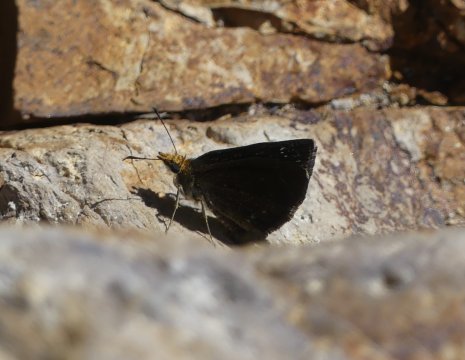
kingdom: Animalia
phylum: Arthropoda
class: Insecta
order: Lepidoptera
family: Hesperiidae
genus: Staphylus
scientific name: Staphylus ceos
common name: Golden-headed Scallopwing
